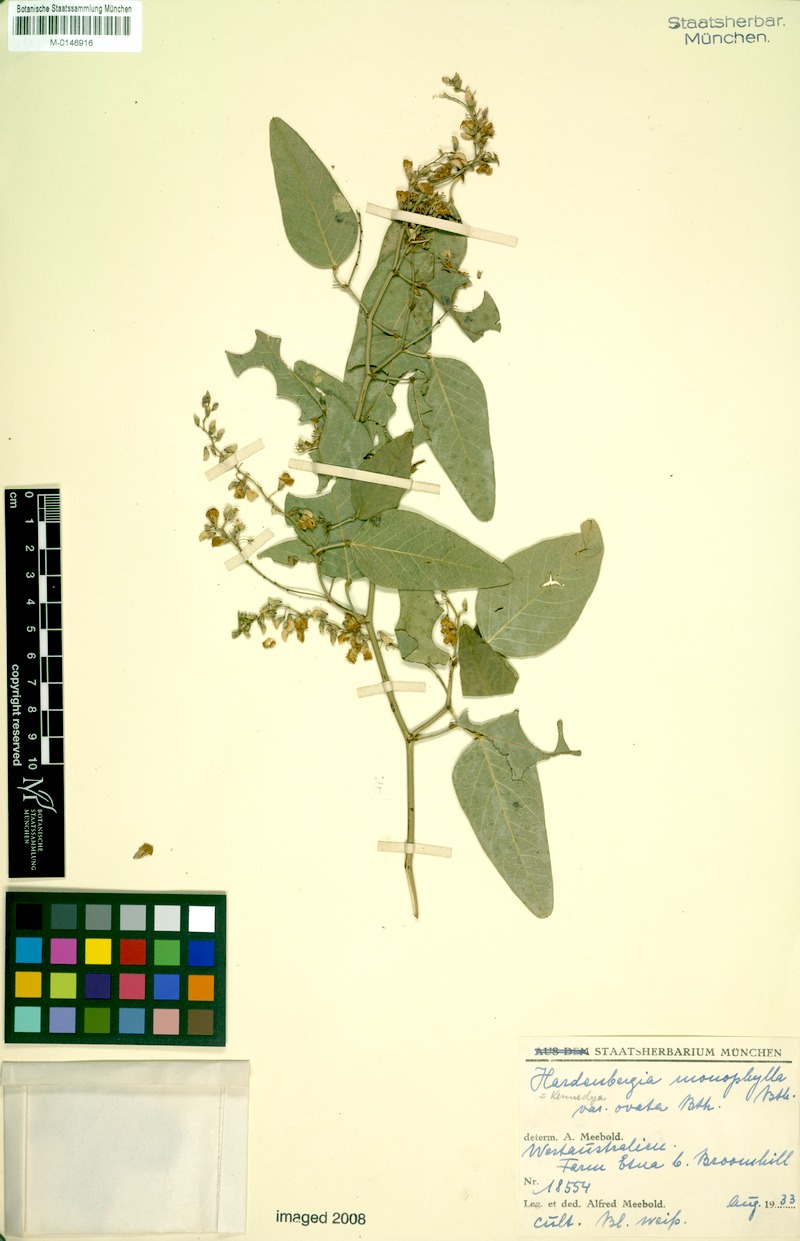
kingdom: Plantae
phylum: Tracheophyta
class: Magnoliopsida
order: Fabales
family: Fabaceae
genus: Hardenbergia
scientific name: Hardenbergia violacea
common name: Coral-pea
